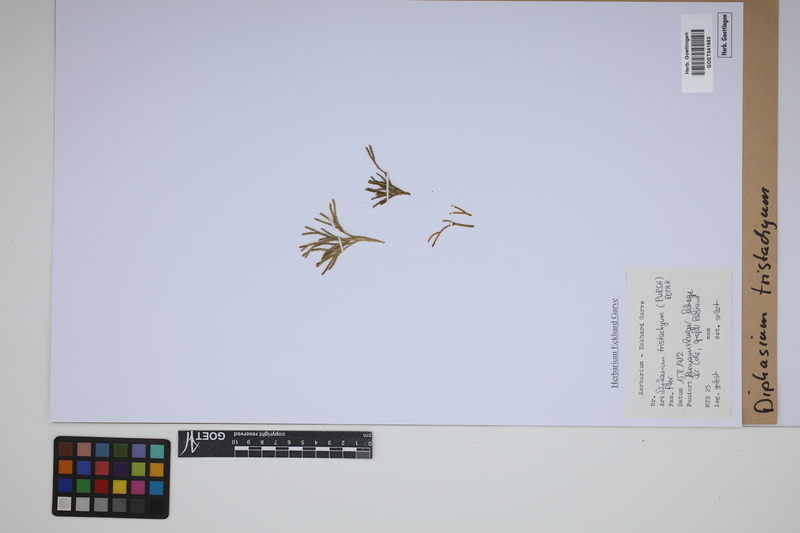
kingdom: Plantae
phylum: Tracheophyta
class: Lycopodiopsida
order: Lycopodiales
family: Lycopodiaceae
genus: Diphasiastrum
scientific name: Diphasiastrum tristachyum
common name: Blue ground-cedar
